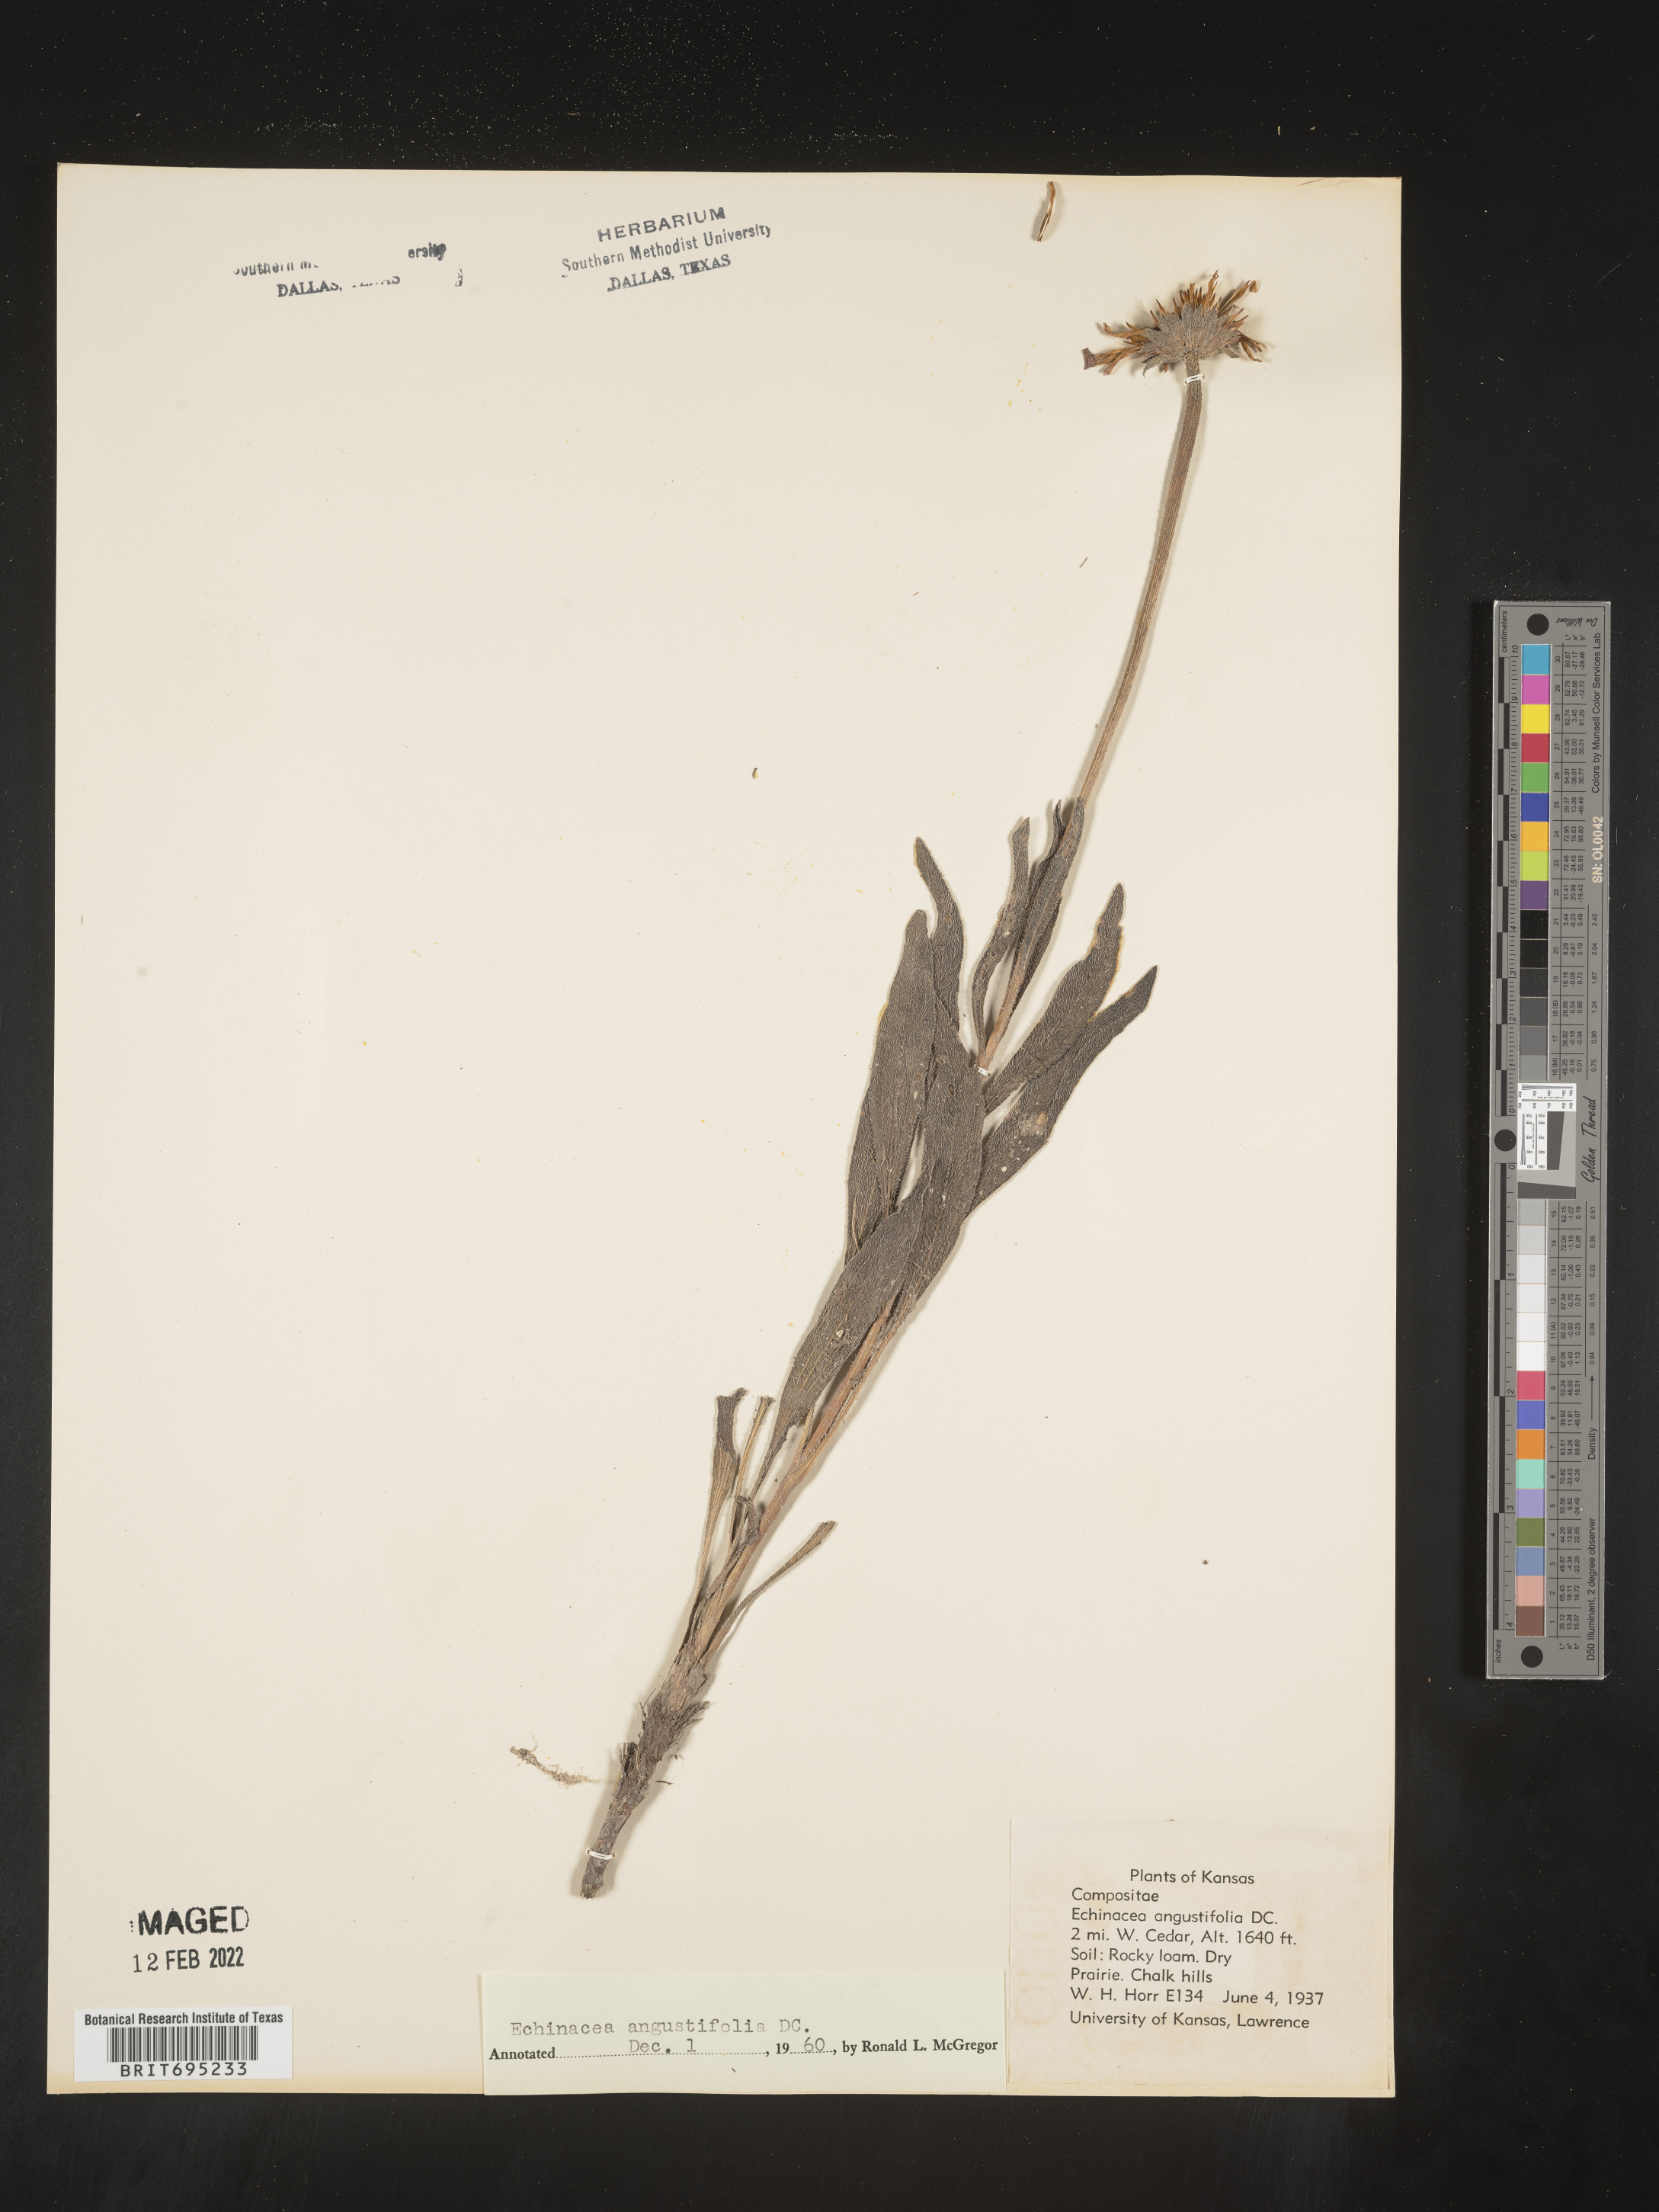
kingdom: Plantae
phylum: Tracheophyta
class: Magnoliopsida
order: Asterales
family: Asteraceae
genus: Echinacea
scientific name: Echinacea angustifolia
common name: Black-sampson echinacea
